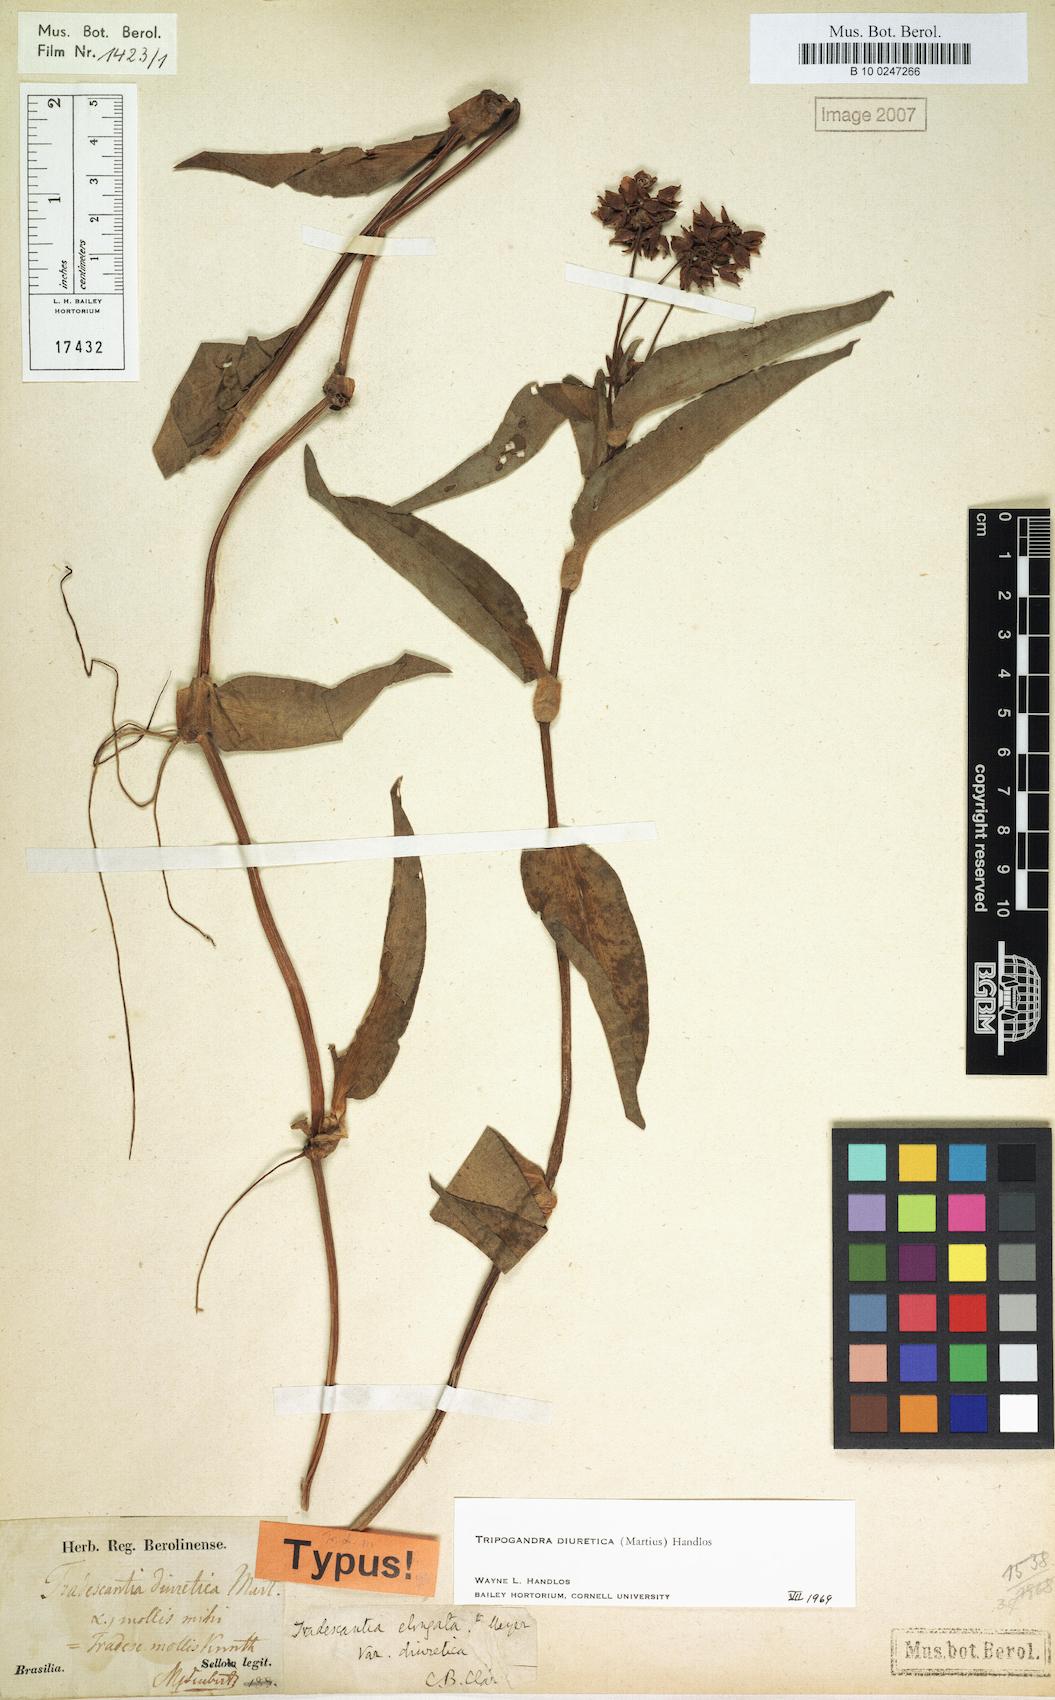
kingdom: Plantae
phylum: Tracheophyta
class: Liliopsida
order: Commelinales
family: Commelinaceae
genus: Callisia
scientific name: Callisia diuretica
